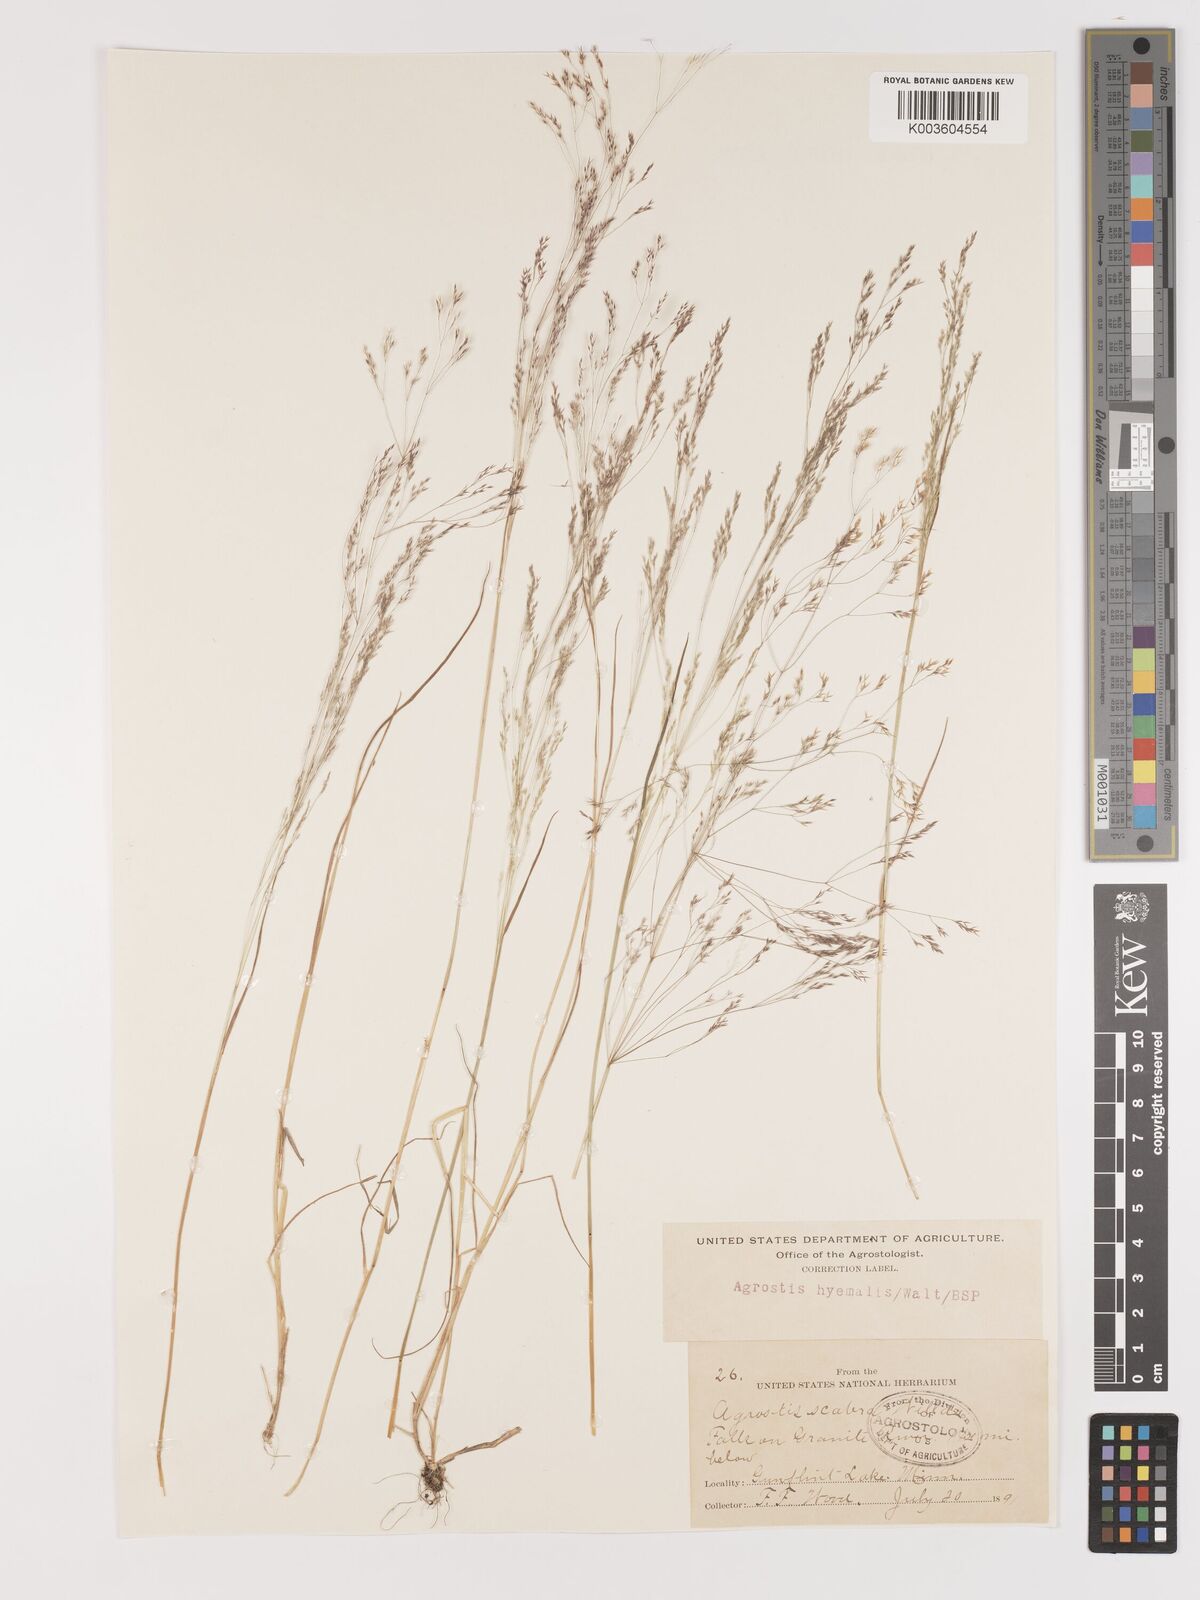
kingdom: Plantae
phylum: Tracheophyta
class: Liliopsida
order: Poales
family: Poaceae
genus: Agrostis
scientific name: Agrostis hyemalis
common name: Small bent
